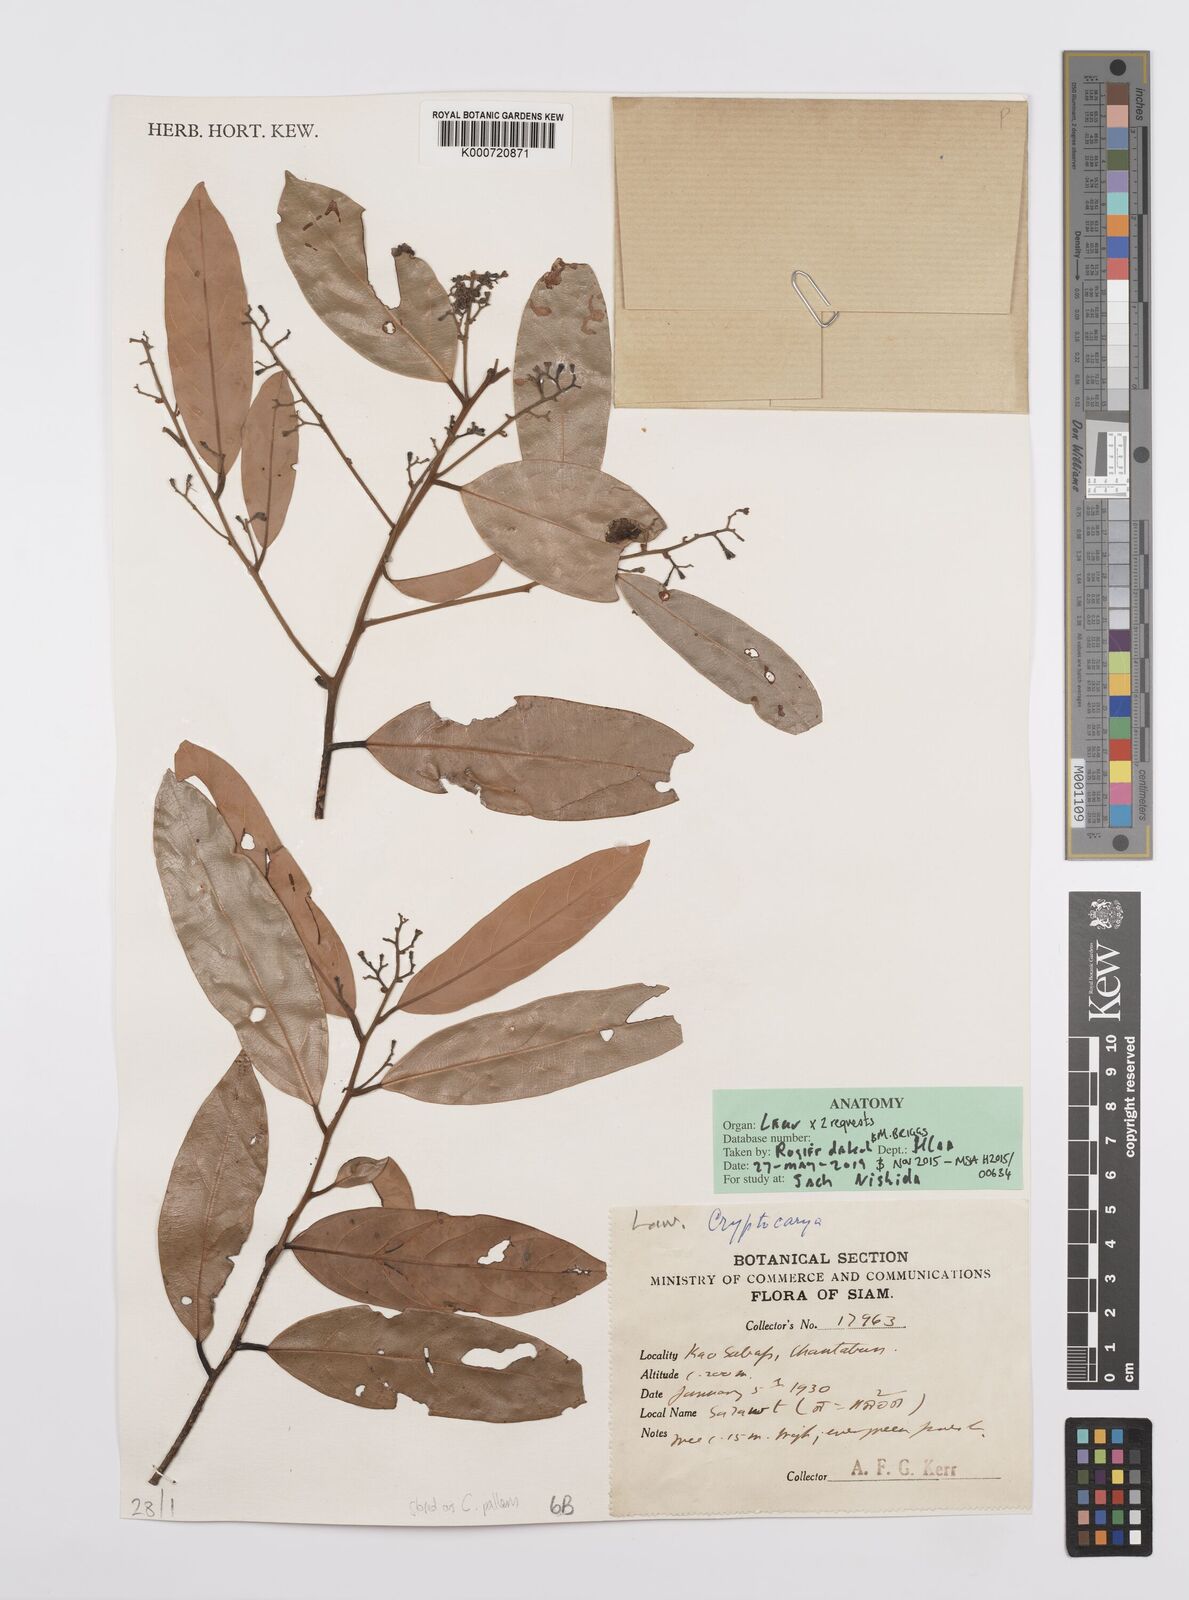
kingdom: Plantae
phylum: Tracheophyta
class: Magnoliopsida
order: Laurales
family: Lauraceae
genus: Cryptocarya
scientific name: Cryptocarya pallens
